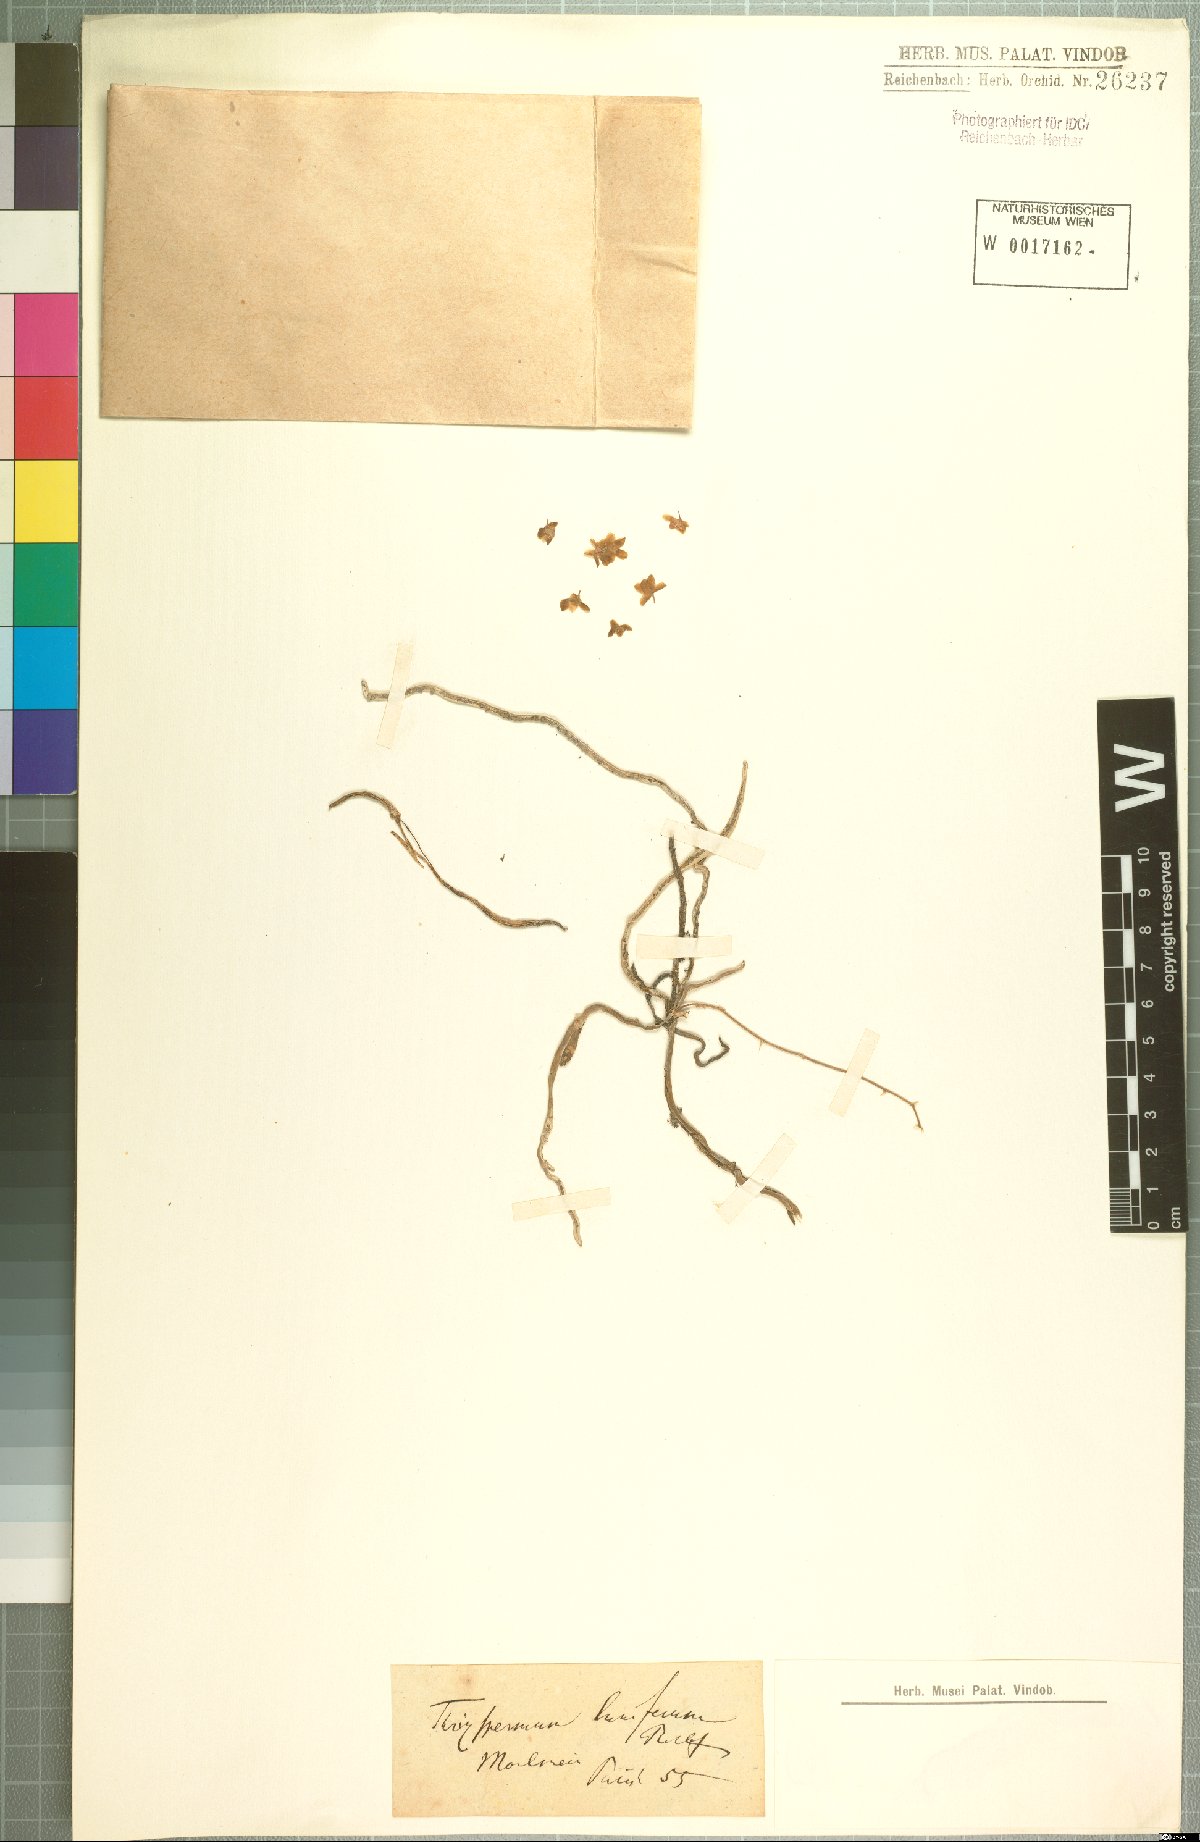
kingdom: Plantae
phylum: Tracheophyta
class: Liliopsida
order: Asparagales
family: Orchidaceae
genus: Chiloschista
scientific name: Chiloschista lunifera
